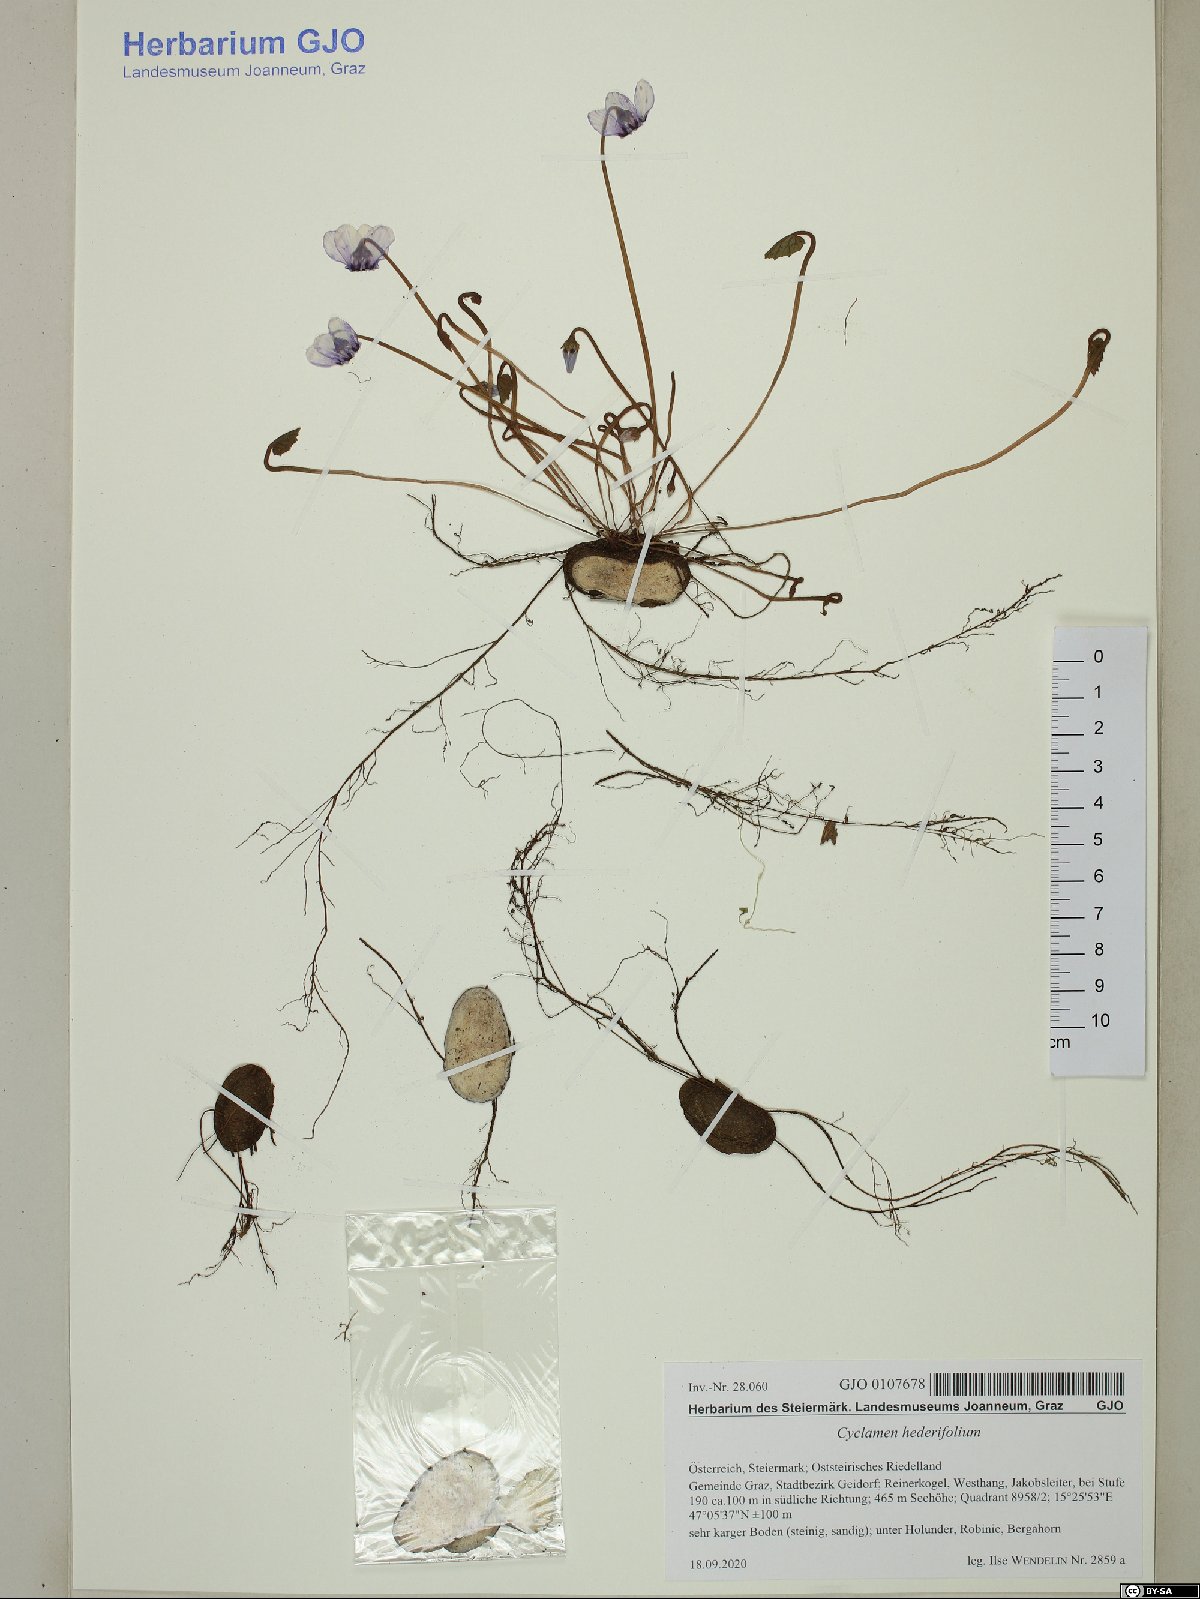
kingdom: Plantae
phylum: Tracheophyta
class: Magnoliopsida
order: Ericales
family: Primulaceae
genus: Cyclamen
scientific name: Cyclamen hederifolium
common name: Sowbread
